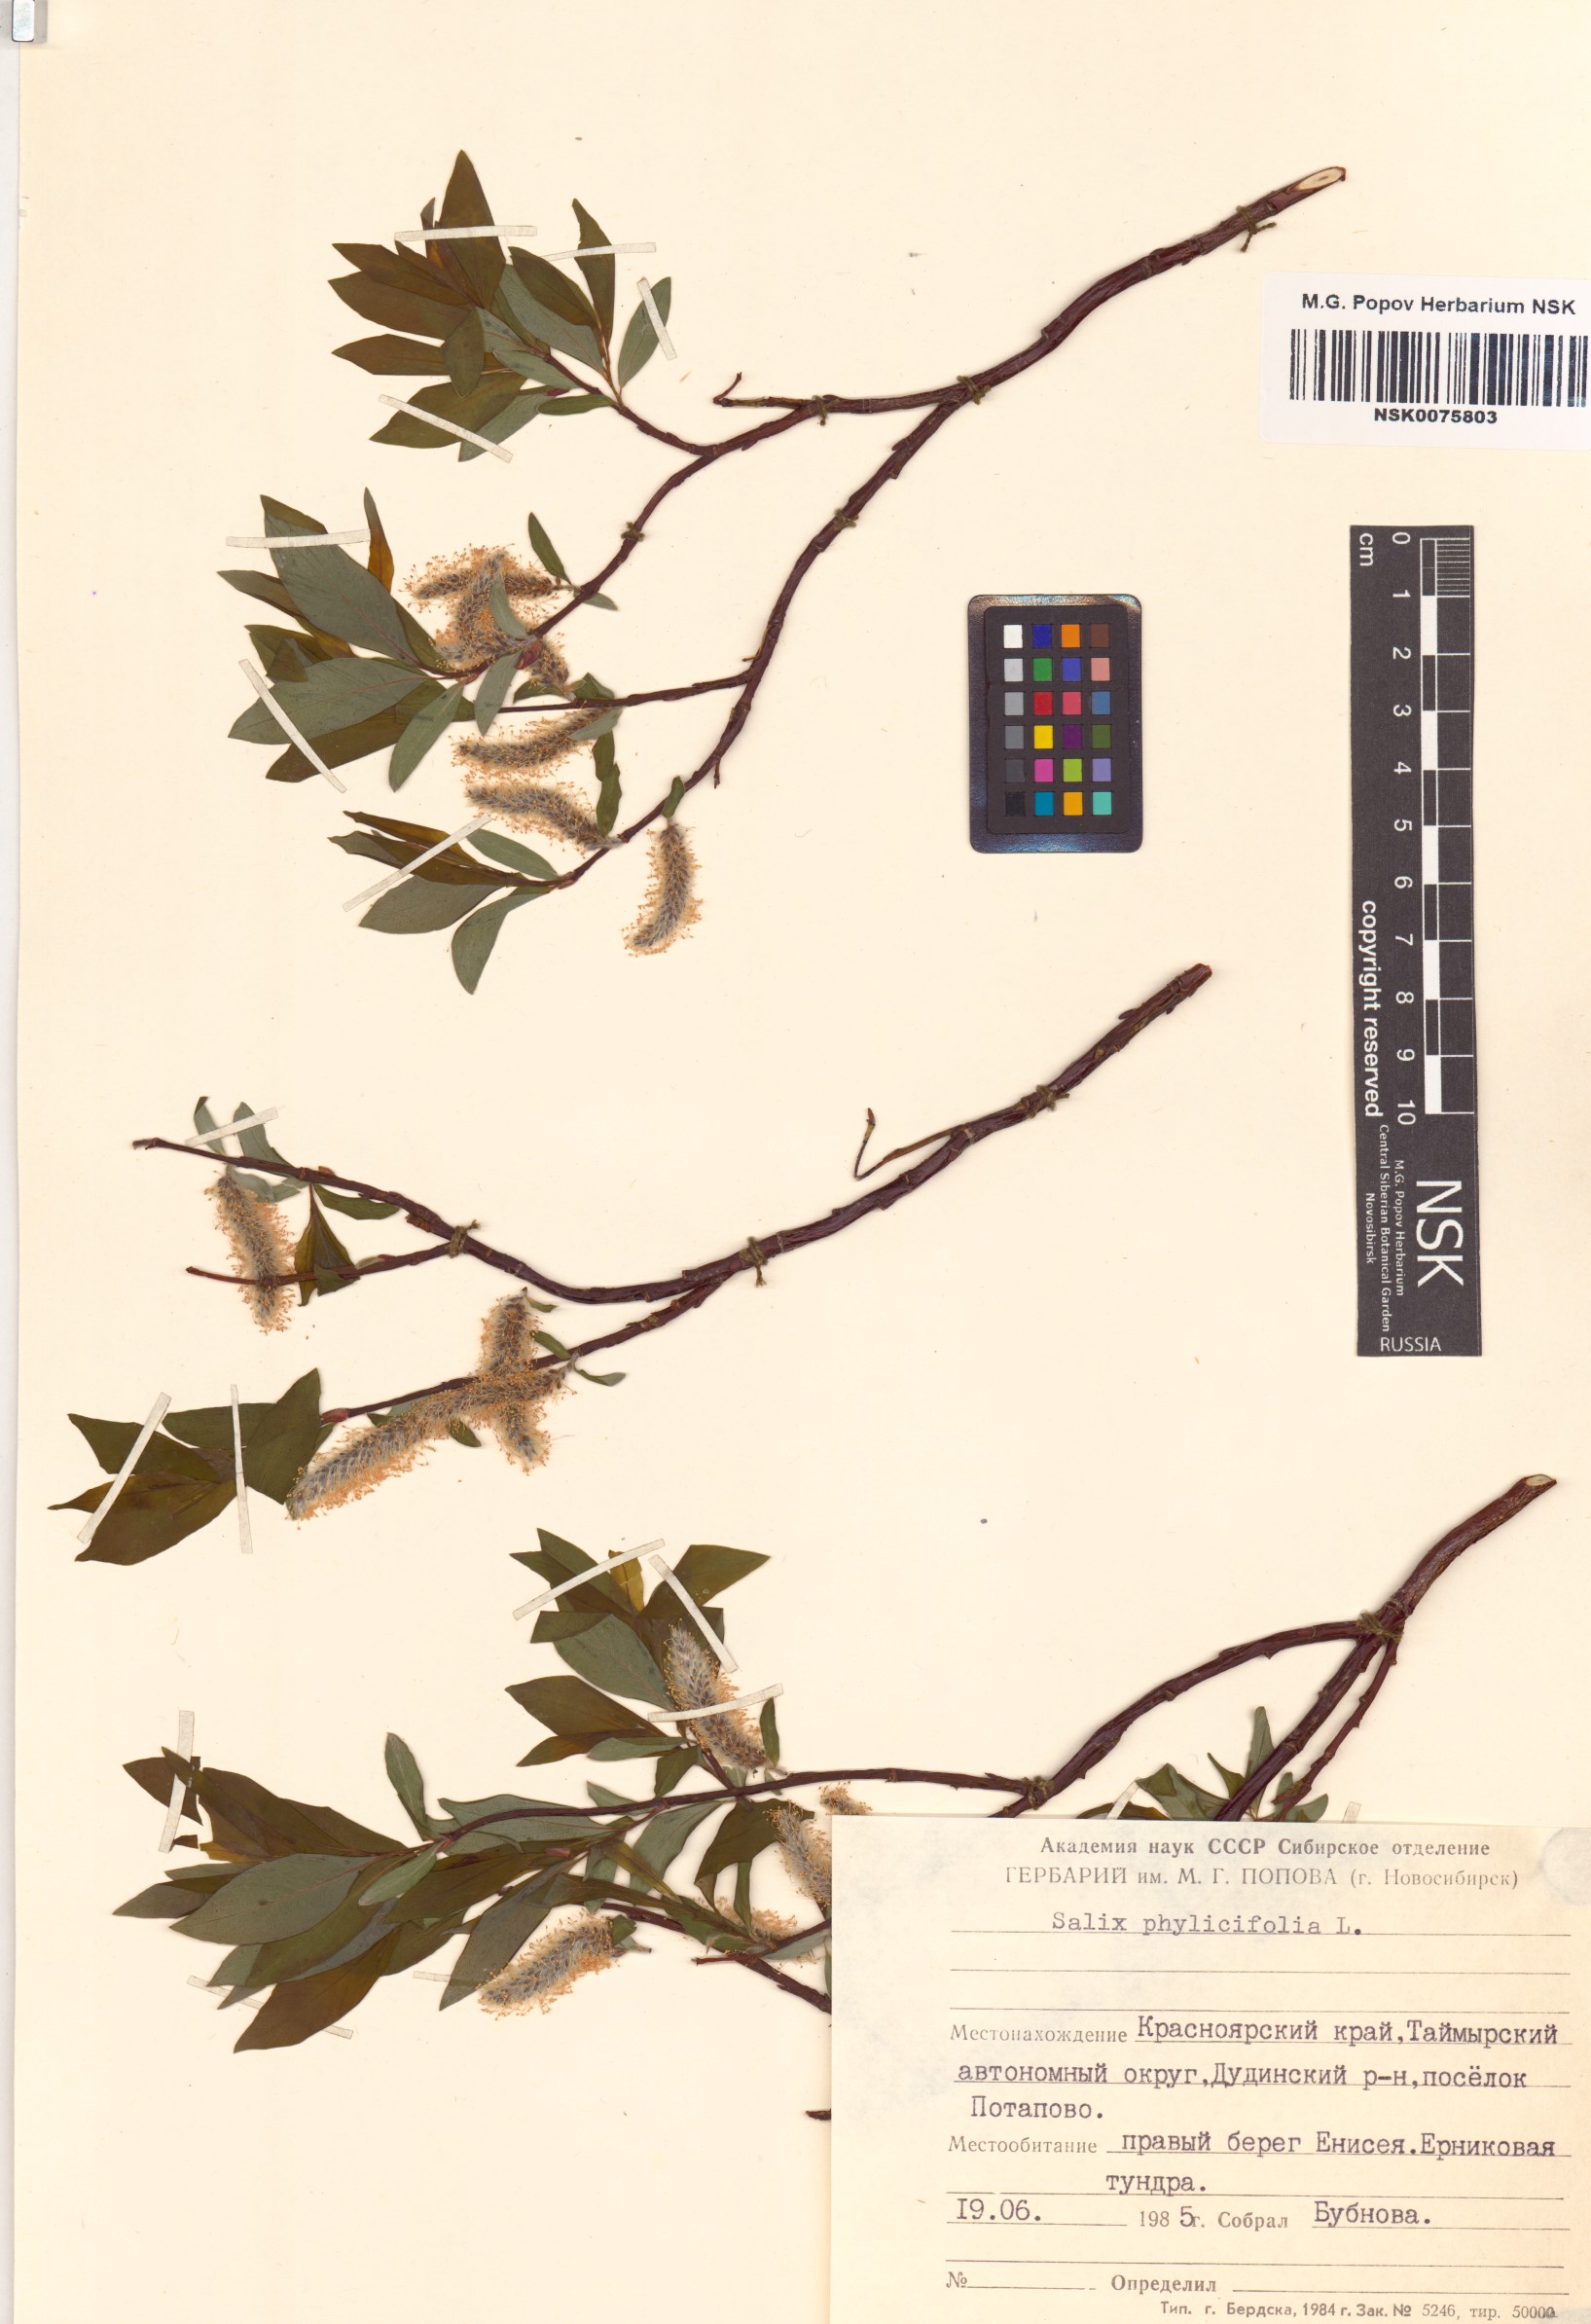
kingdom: Plantae
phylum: Tracheophyta
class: Magnoliopsida
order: Malpighiales
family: Salicaceae
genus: Salix
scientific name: Salix phylicifolia
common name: Tea-leaved willow
